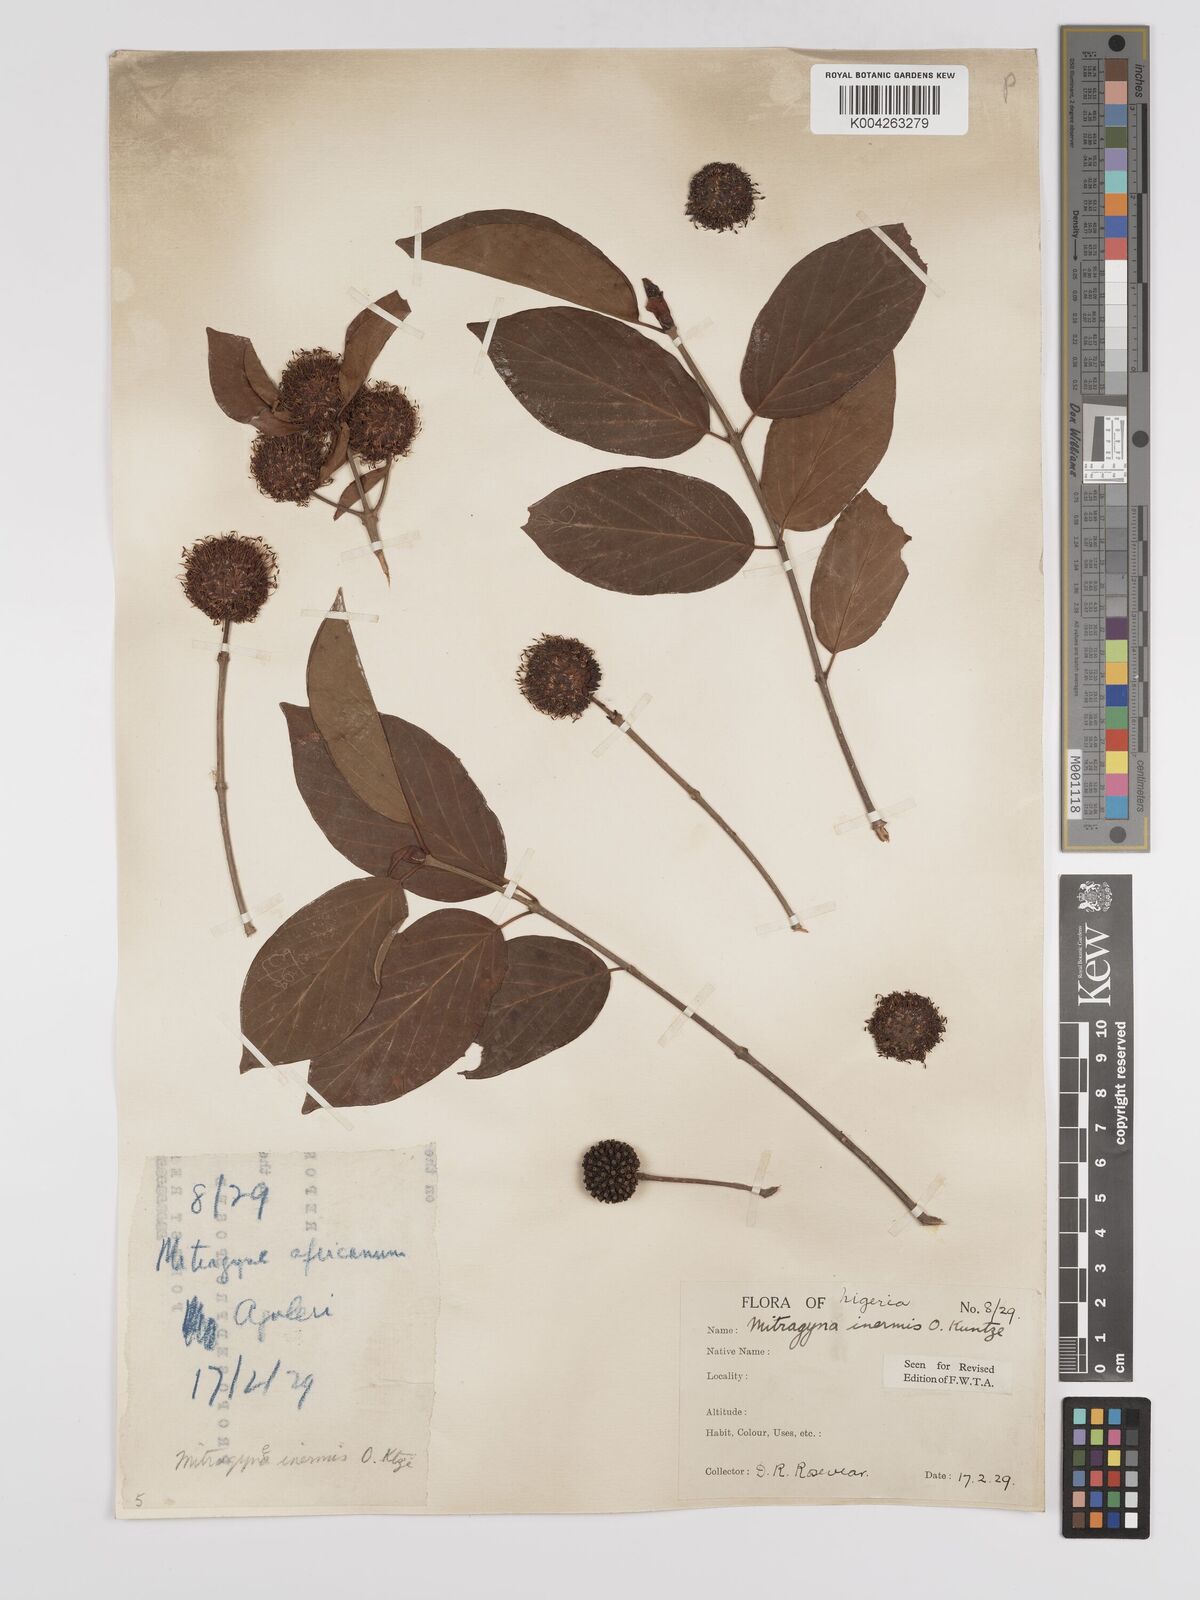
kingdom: Plantae
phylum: Tracheophyta
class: Magnoliopsida
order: Gentianales
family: Rubiaceae
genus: Mitragyna
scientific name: Mitragyna inermis
